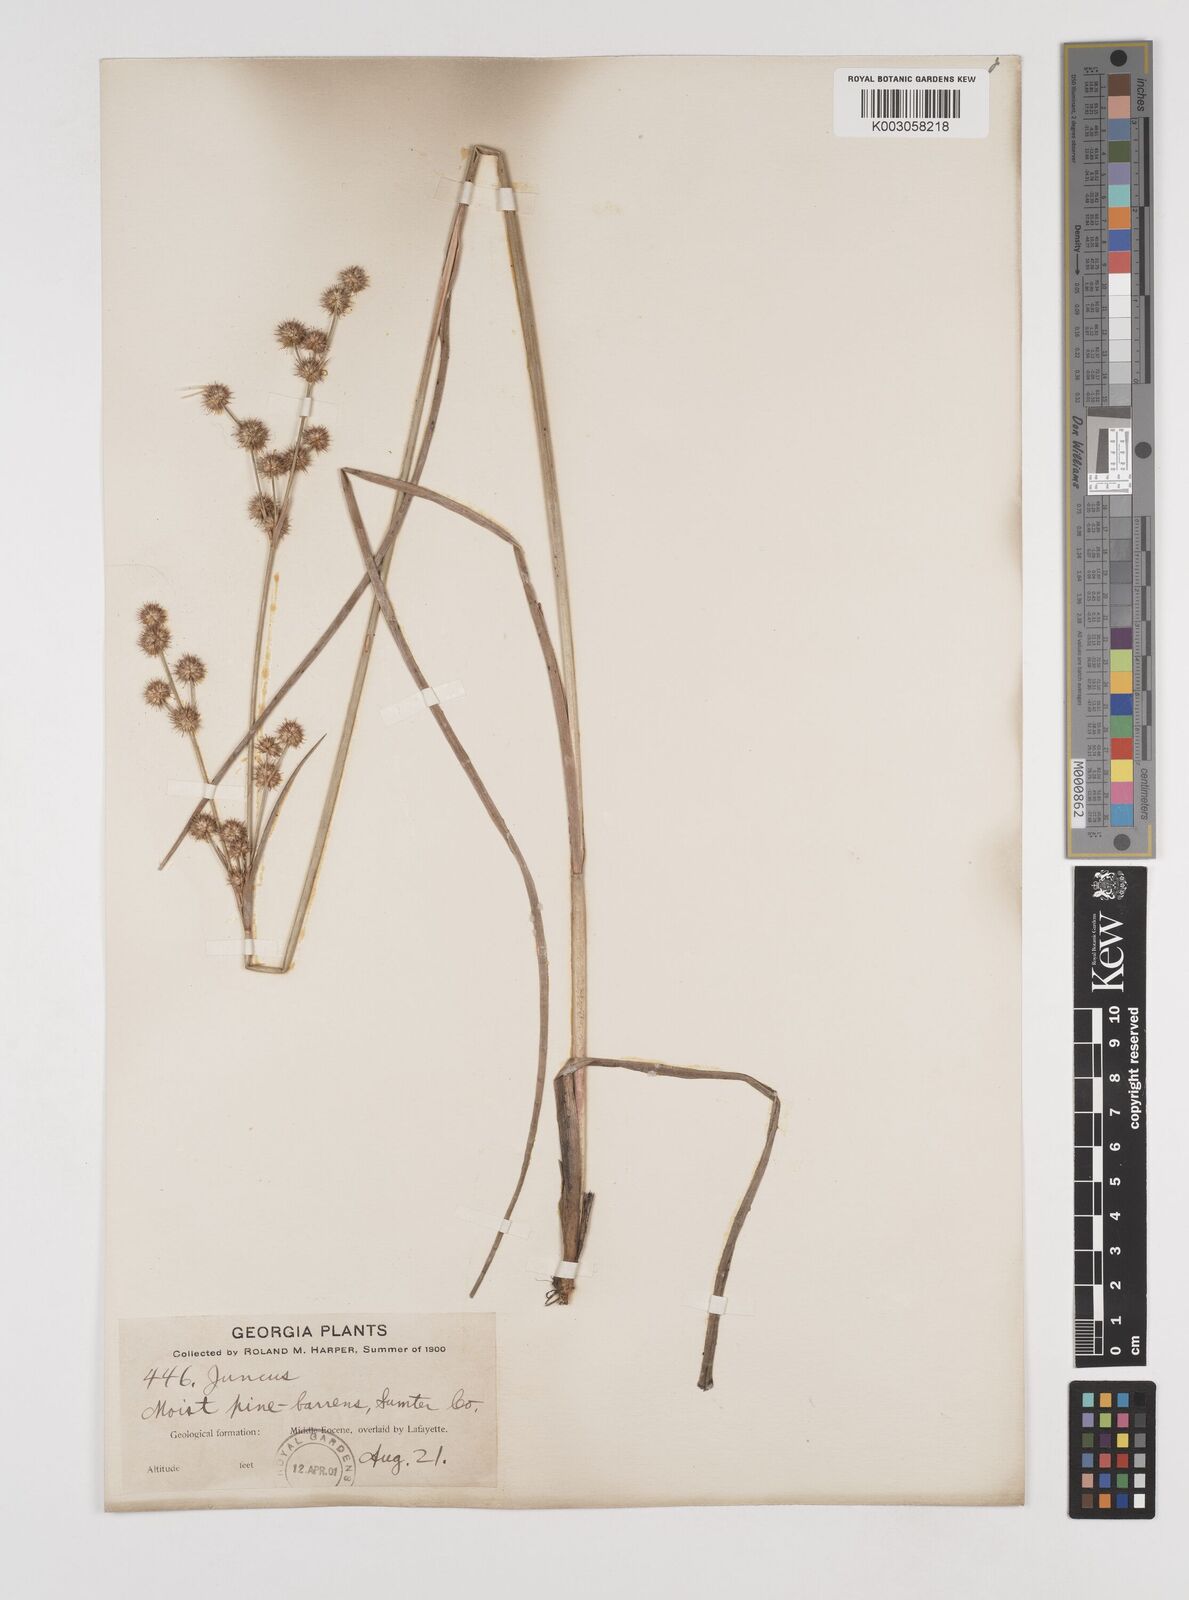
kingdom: Plantae
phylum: Tracheophyta
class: Liliopsida
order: Poales
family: Juncaceae
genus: Juncus
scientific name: Juncus
